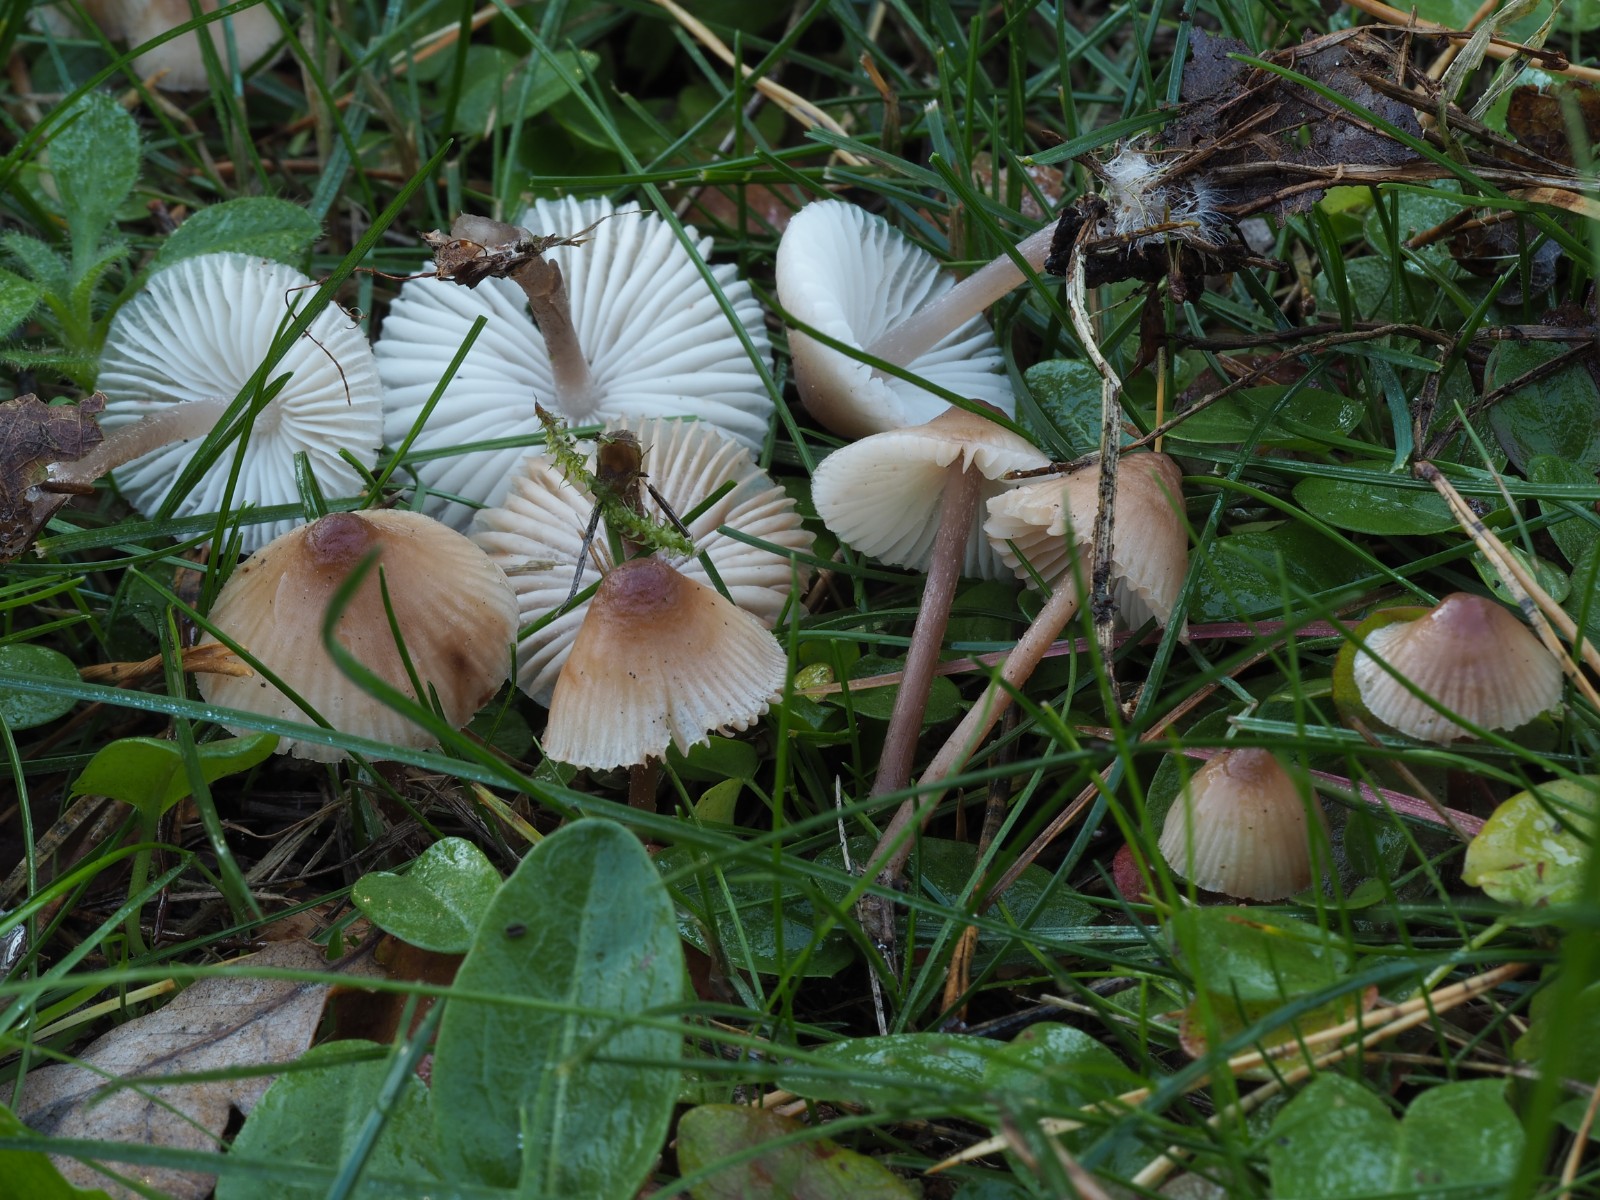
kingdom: Fungi
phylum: Basidiomycota
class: Agaricomycetes
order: Agaricales
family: Mycenaceae
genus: Mycena
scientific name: Mycena zephirus
